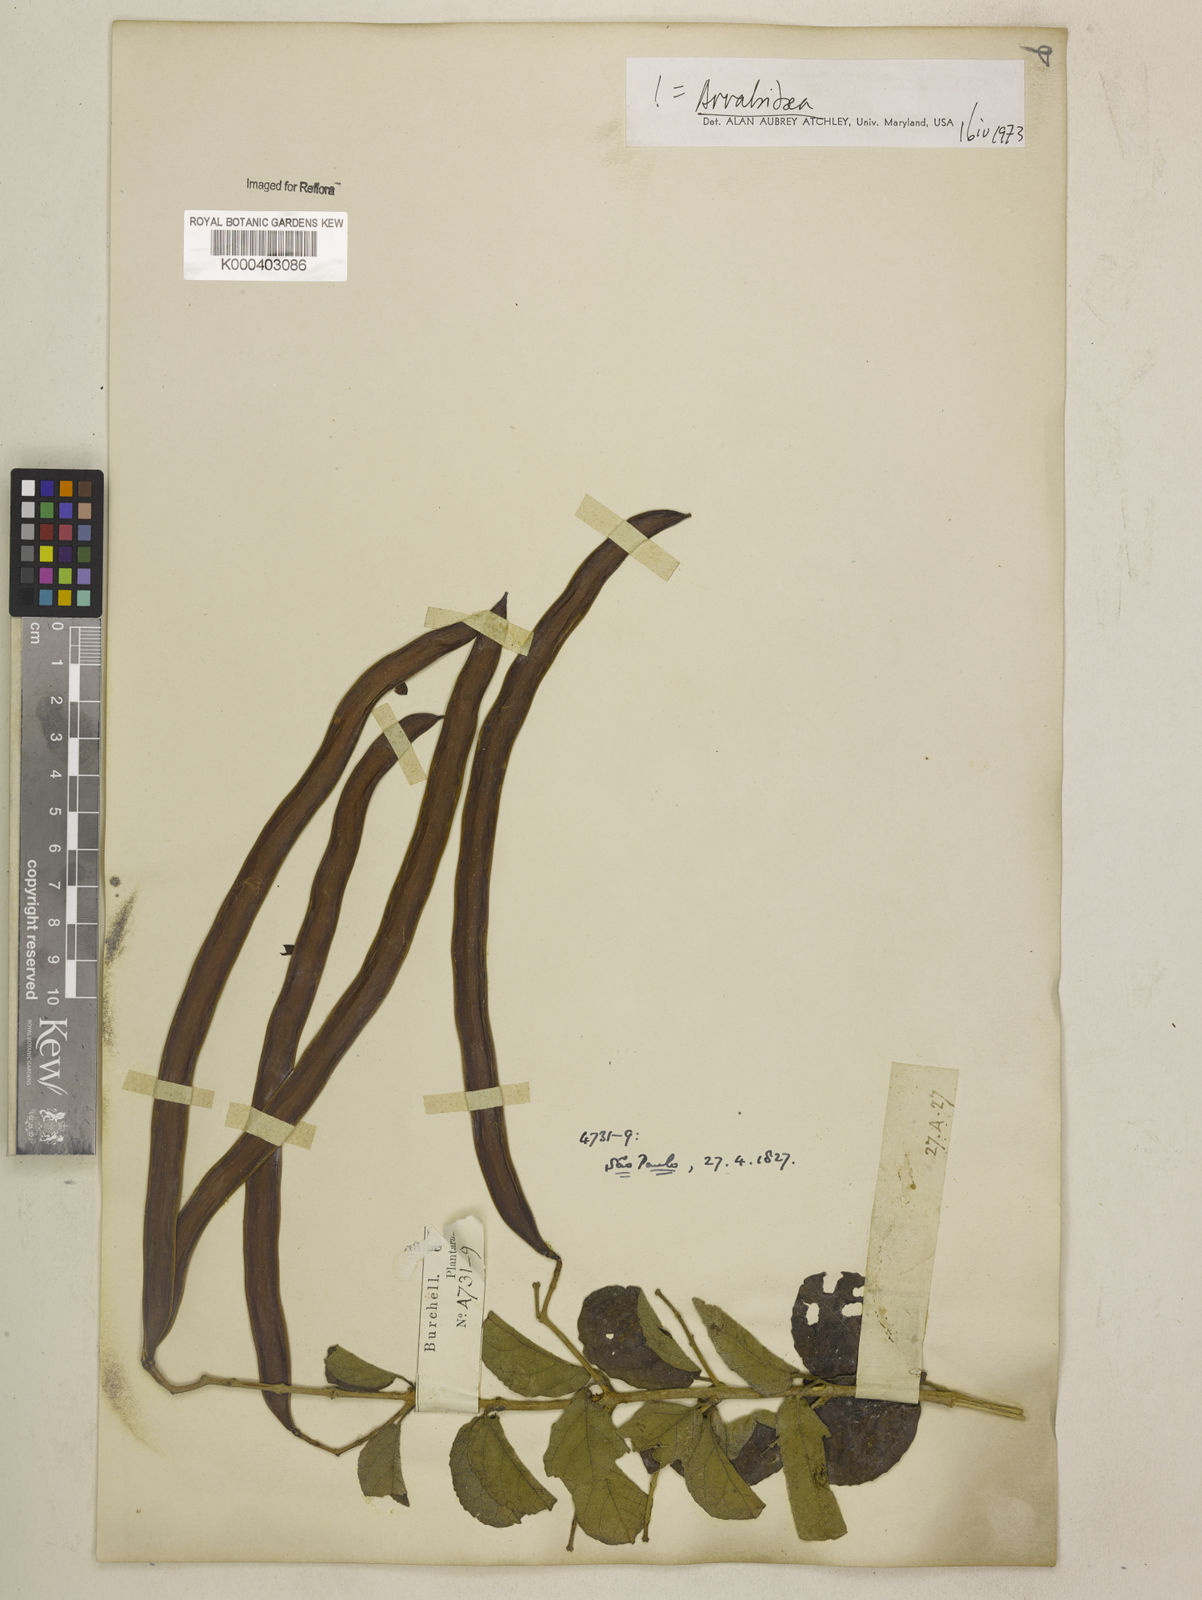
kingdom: Plantae
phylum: Tracheophyta
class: Magnoliopsida
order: Lamiales
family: Bignoniaceae
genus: Fridericia
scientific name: Fridericia samydoides
